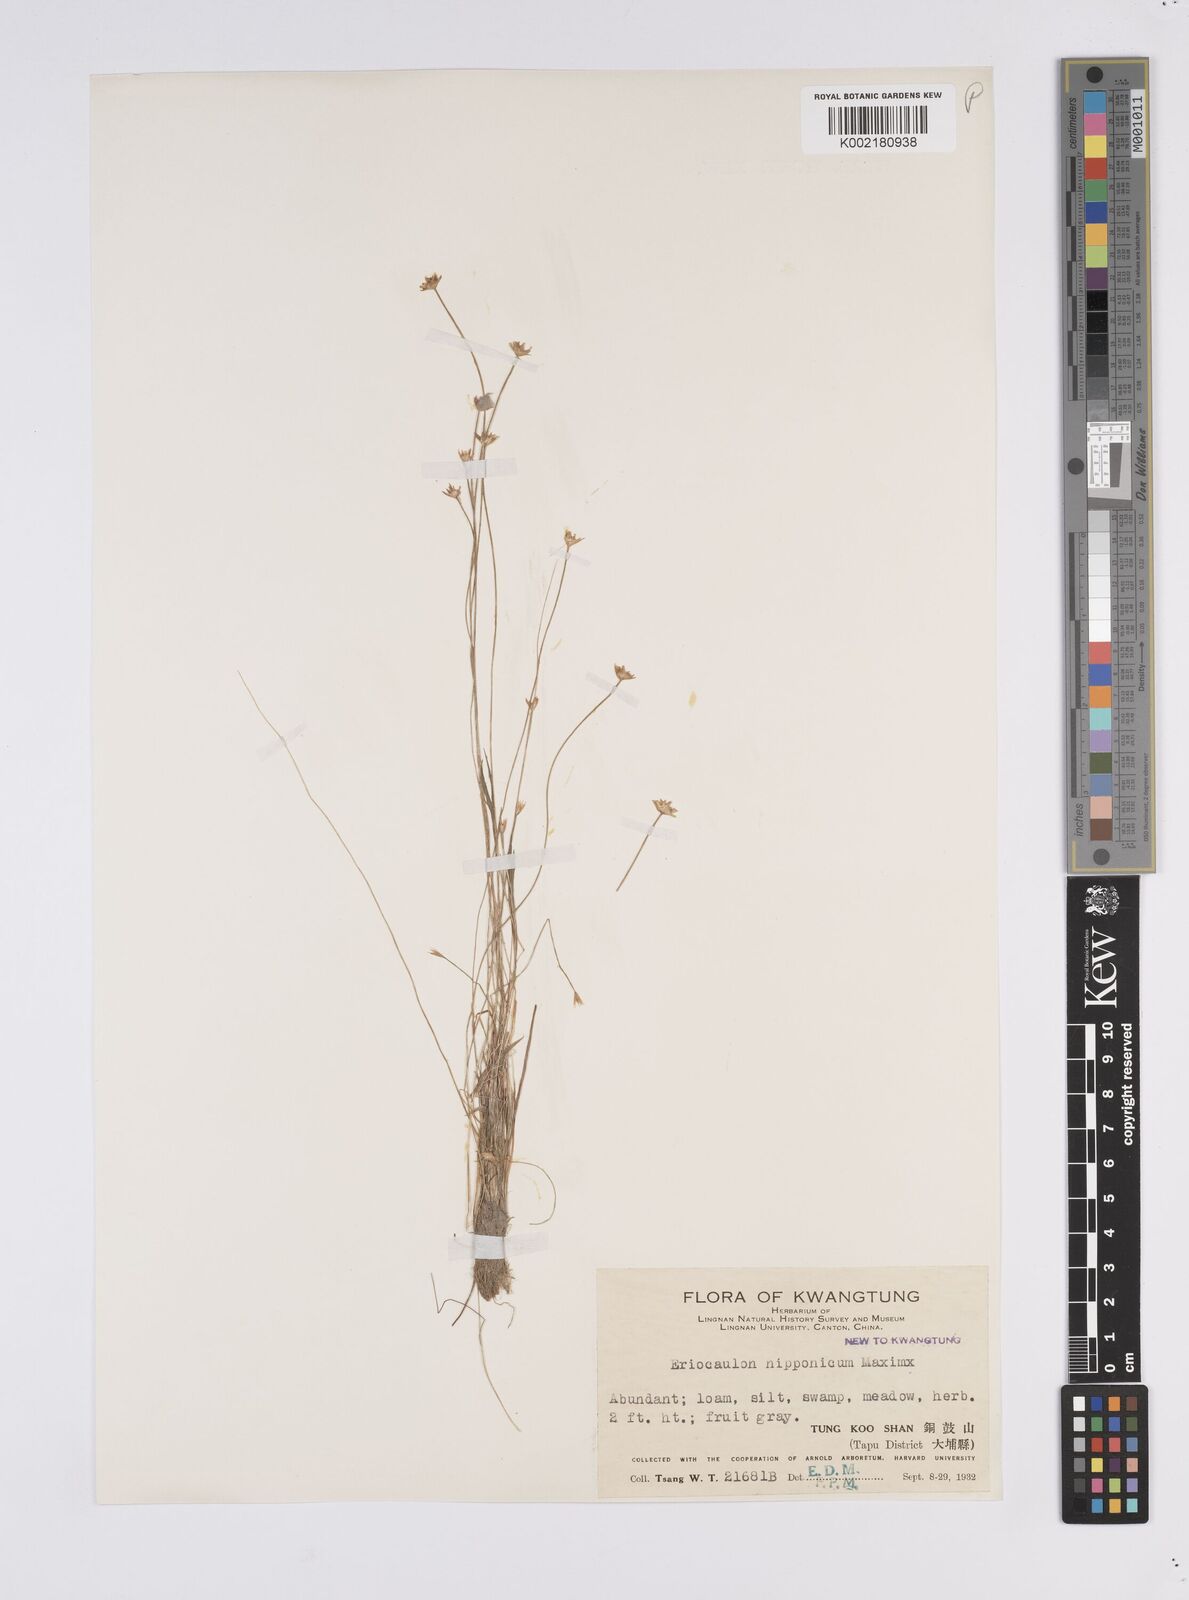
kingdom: Plantae
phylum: Tracheophyta
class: Liliopsida
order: Poales
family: Eriocaulaceae
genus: Eriocaulon
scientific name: Eriocaulon decemflorum
